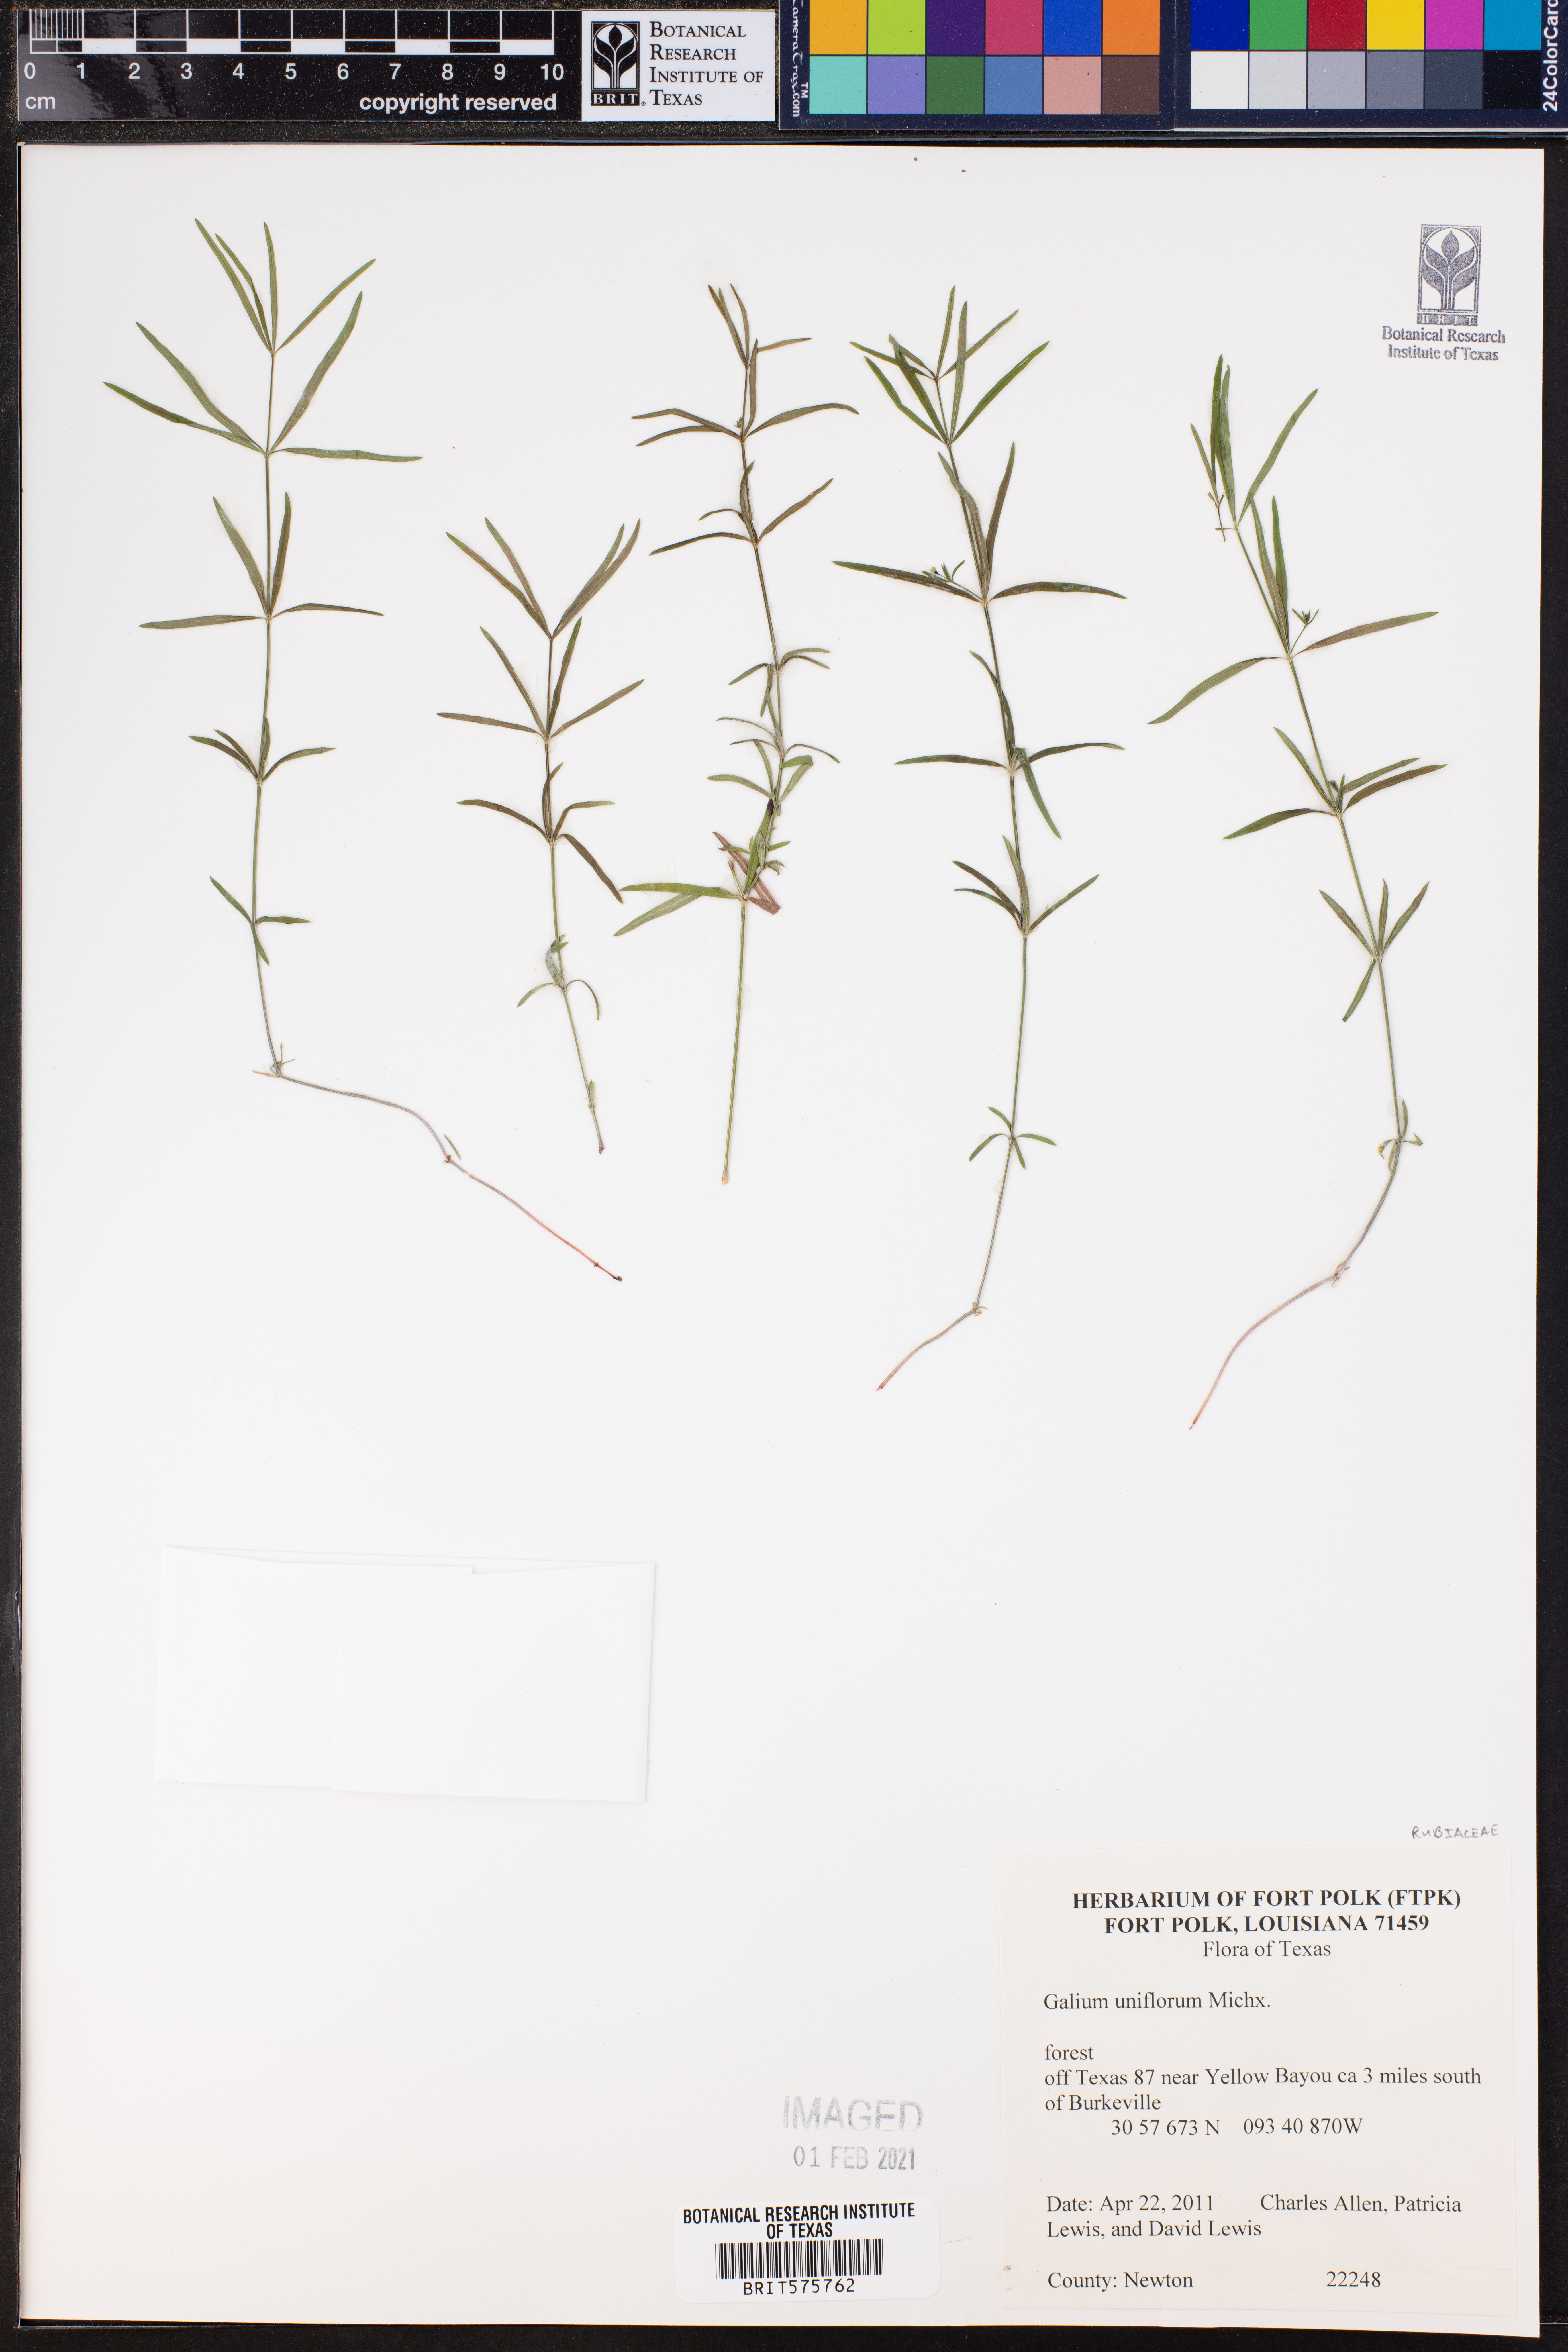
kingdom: Plantae
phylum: Tracheophyta
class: Magnoliopsida
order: Gentianales
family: Rubiaceae
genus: Galium
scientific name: Galium uniflorum
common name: One-flower bedstraw
